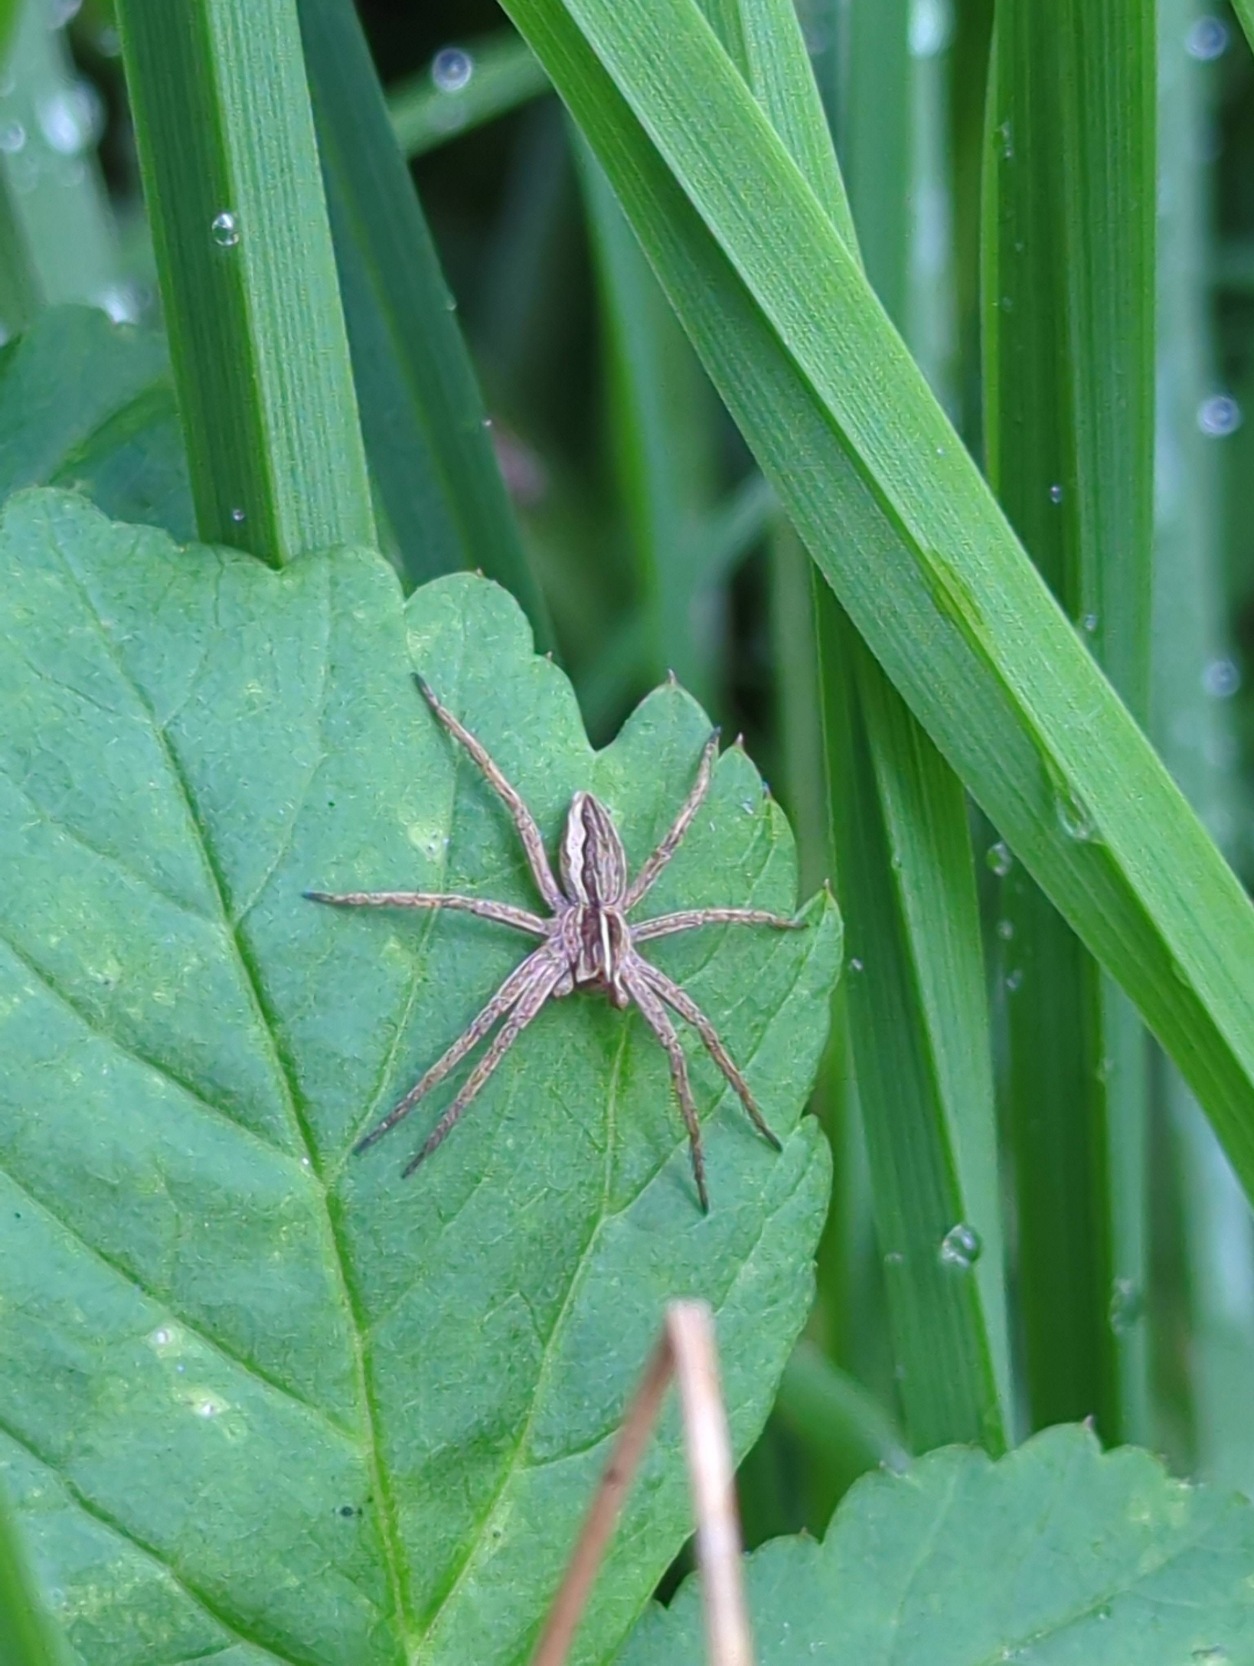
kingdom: Animalia
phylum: Arthropoda
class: Arachnida
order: Araneae
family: Pisauridae
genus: Pisaura
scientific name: Pisaura mirabilis
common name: Almindelig rovedderkop
